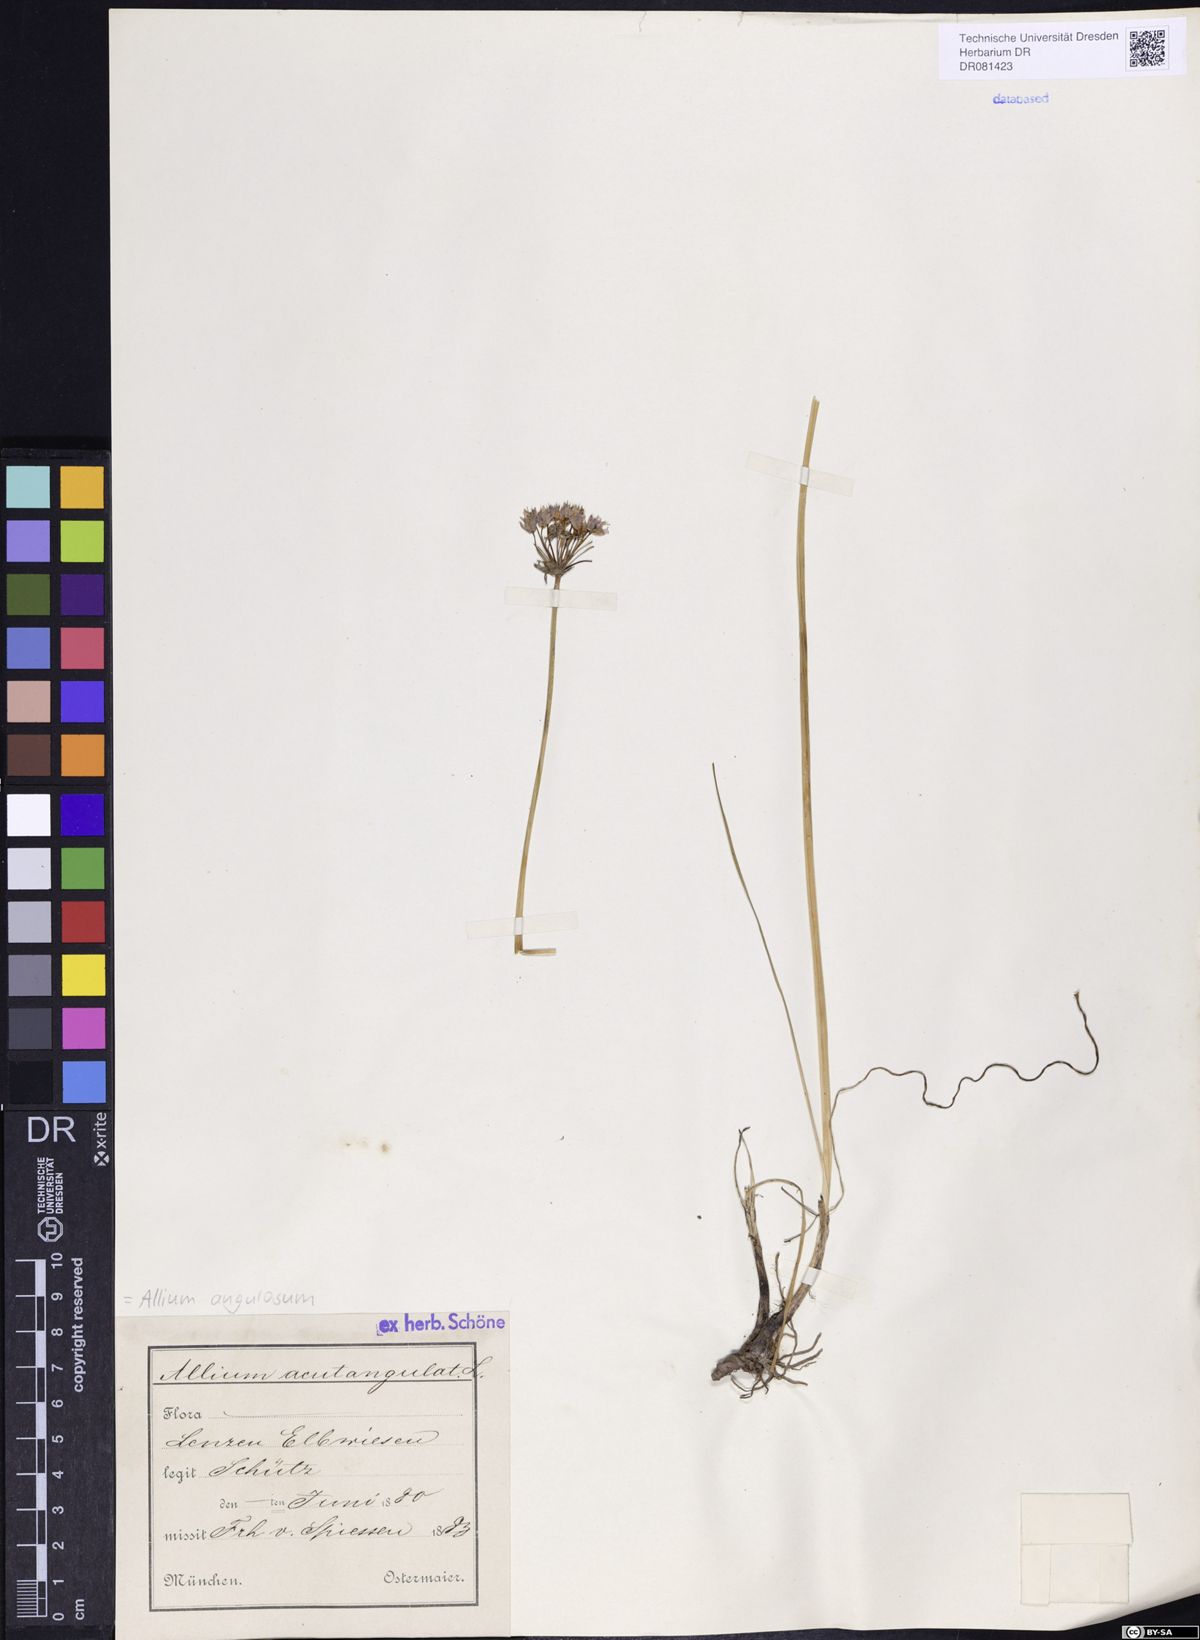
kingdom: Plantae
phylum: Tracheophyta
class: Liliopsida
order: Asparagales
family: Amaryllidaceae
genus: Allium
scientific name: Allium angulosum
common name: Mouse garlic
